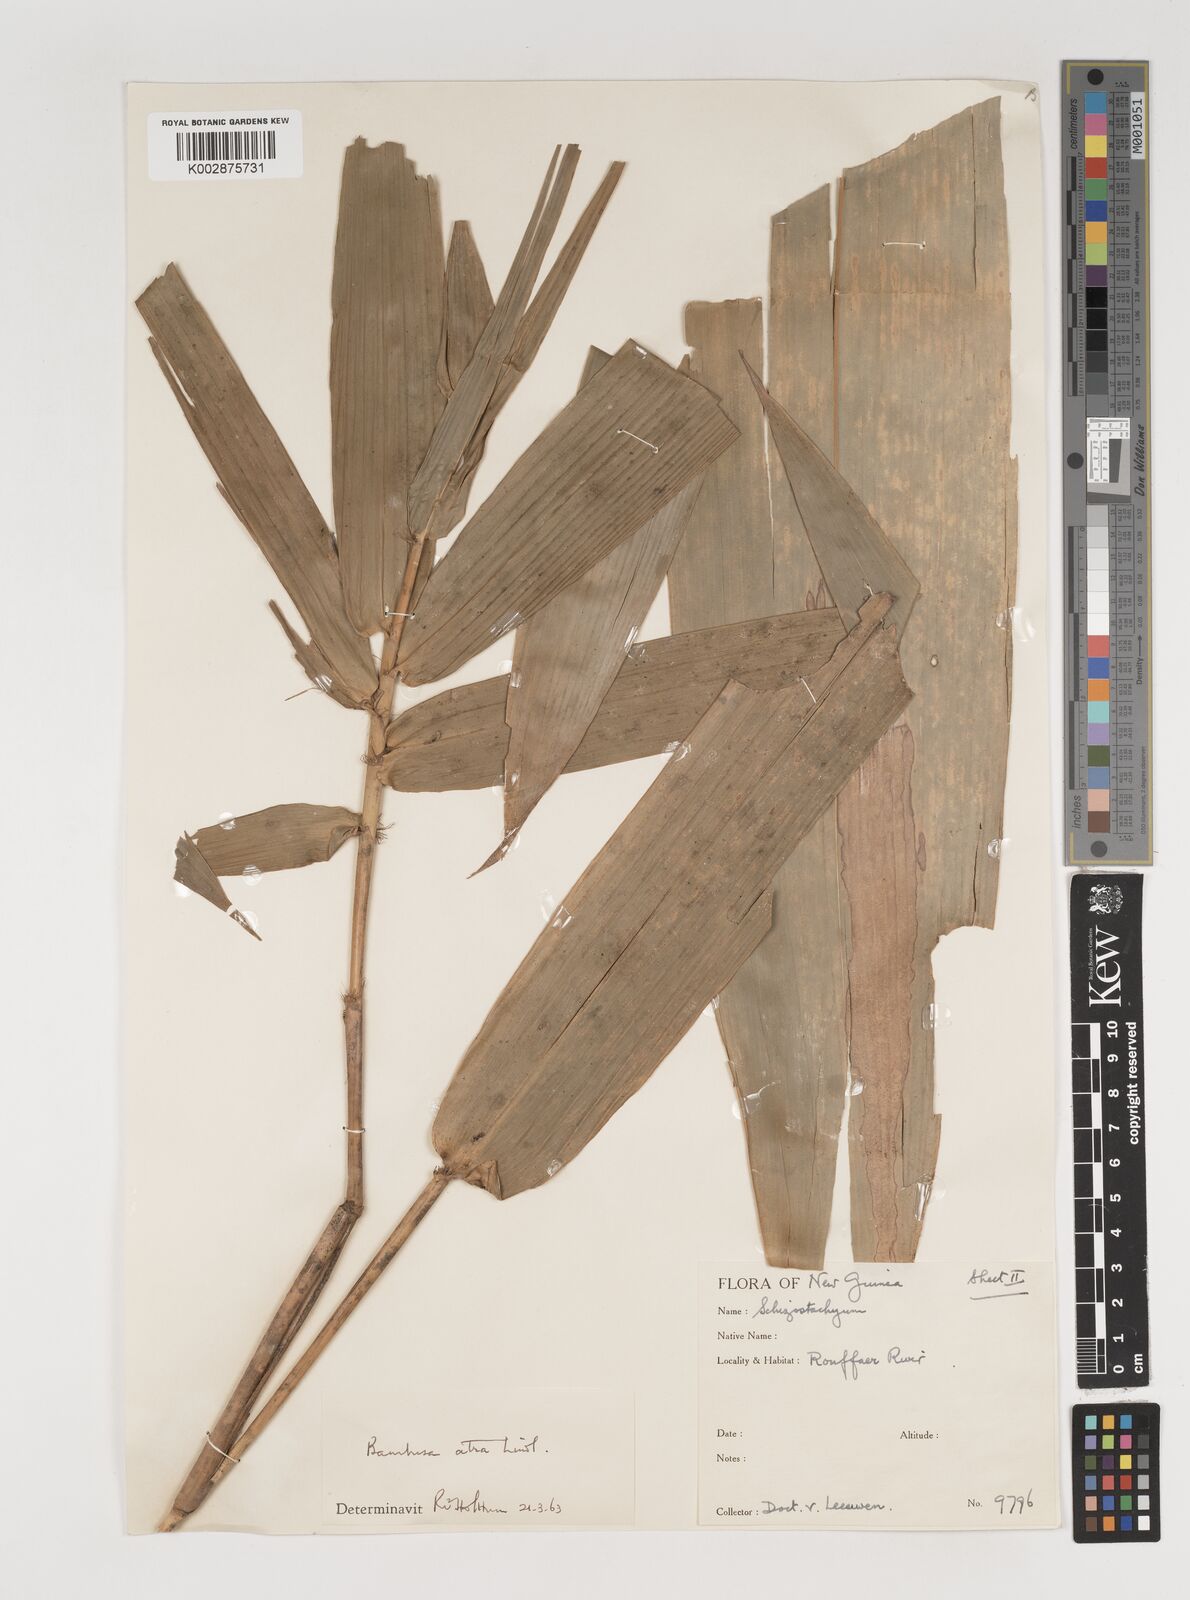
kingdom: Plantae
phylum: Tracheophyta
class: Liliopsida
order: Poales
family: Poaceae
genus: Neololeba
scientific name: Neololeba atra
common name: Cape bamboo
